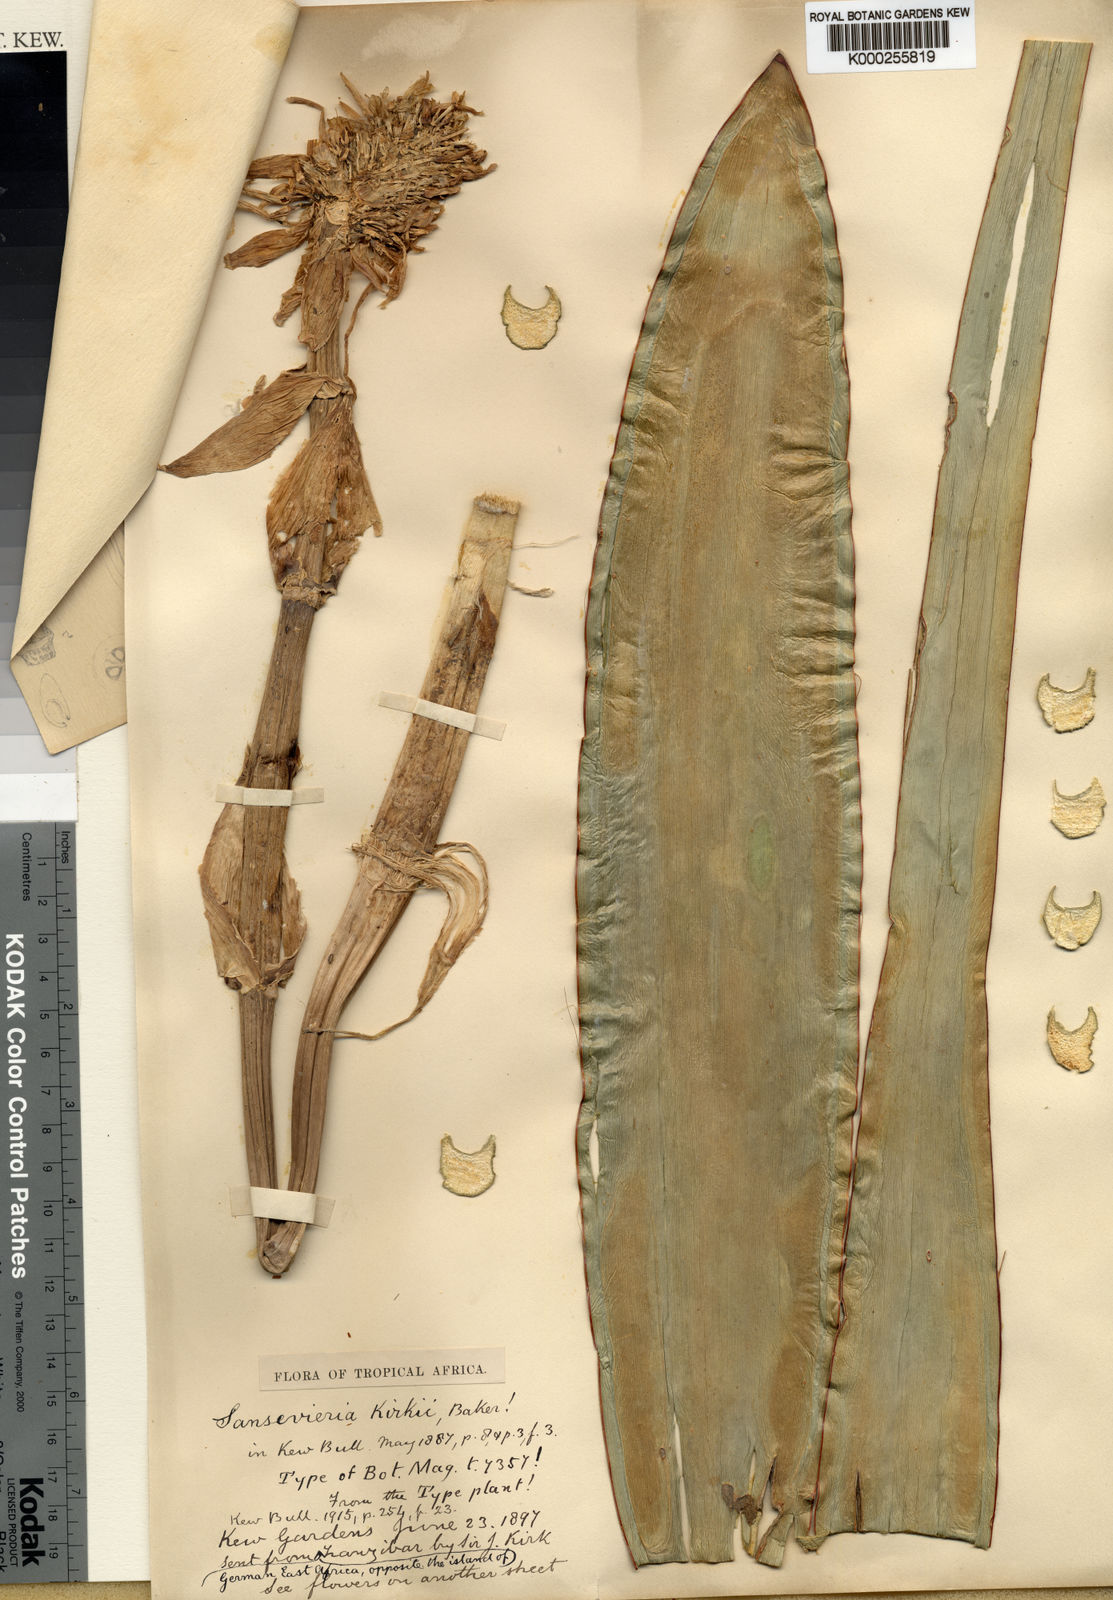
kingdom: Plantae
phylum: Tracheophyta
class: Liliopsida
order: Asparagales
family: Asparagaceae
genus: Dracaena
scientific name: Dracaena pethera
